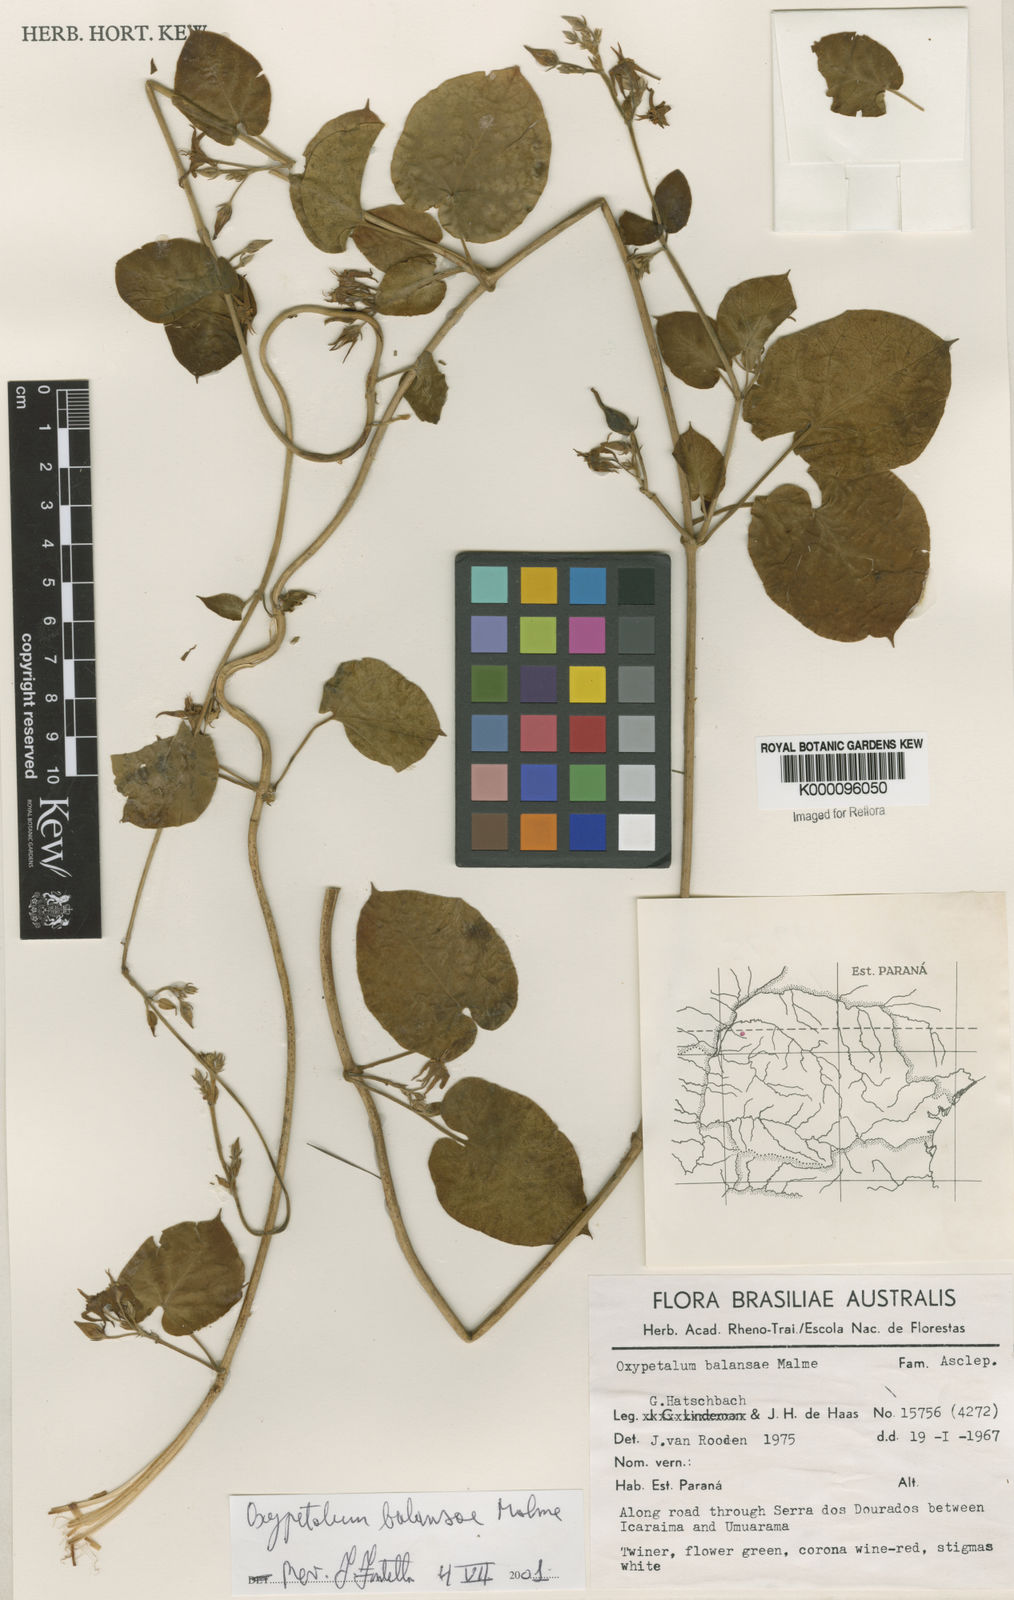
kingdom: Plantae
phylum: Tracheophyta
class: Magnoliopsida
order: Gentianales
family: Apocynaceae
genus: Oxypetalum
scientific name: Oxypetalum balansae
